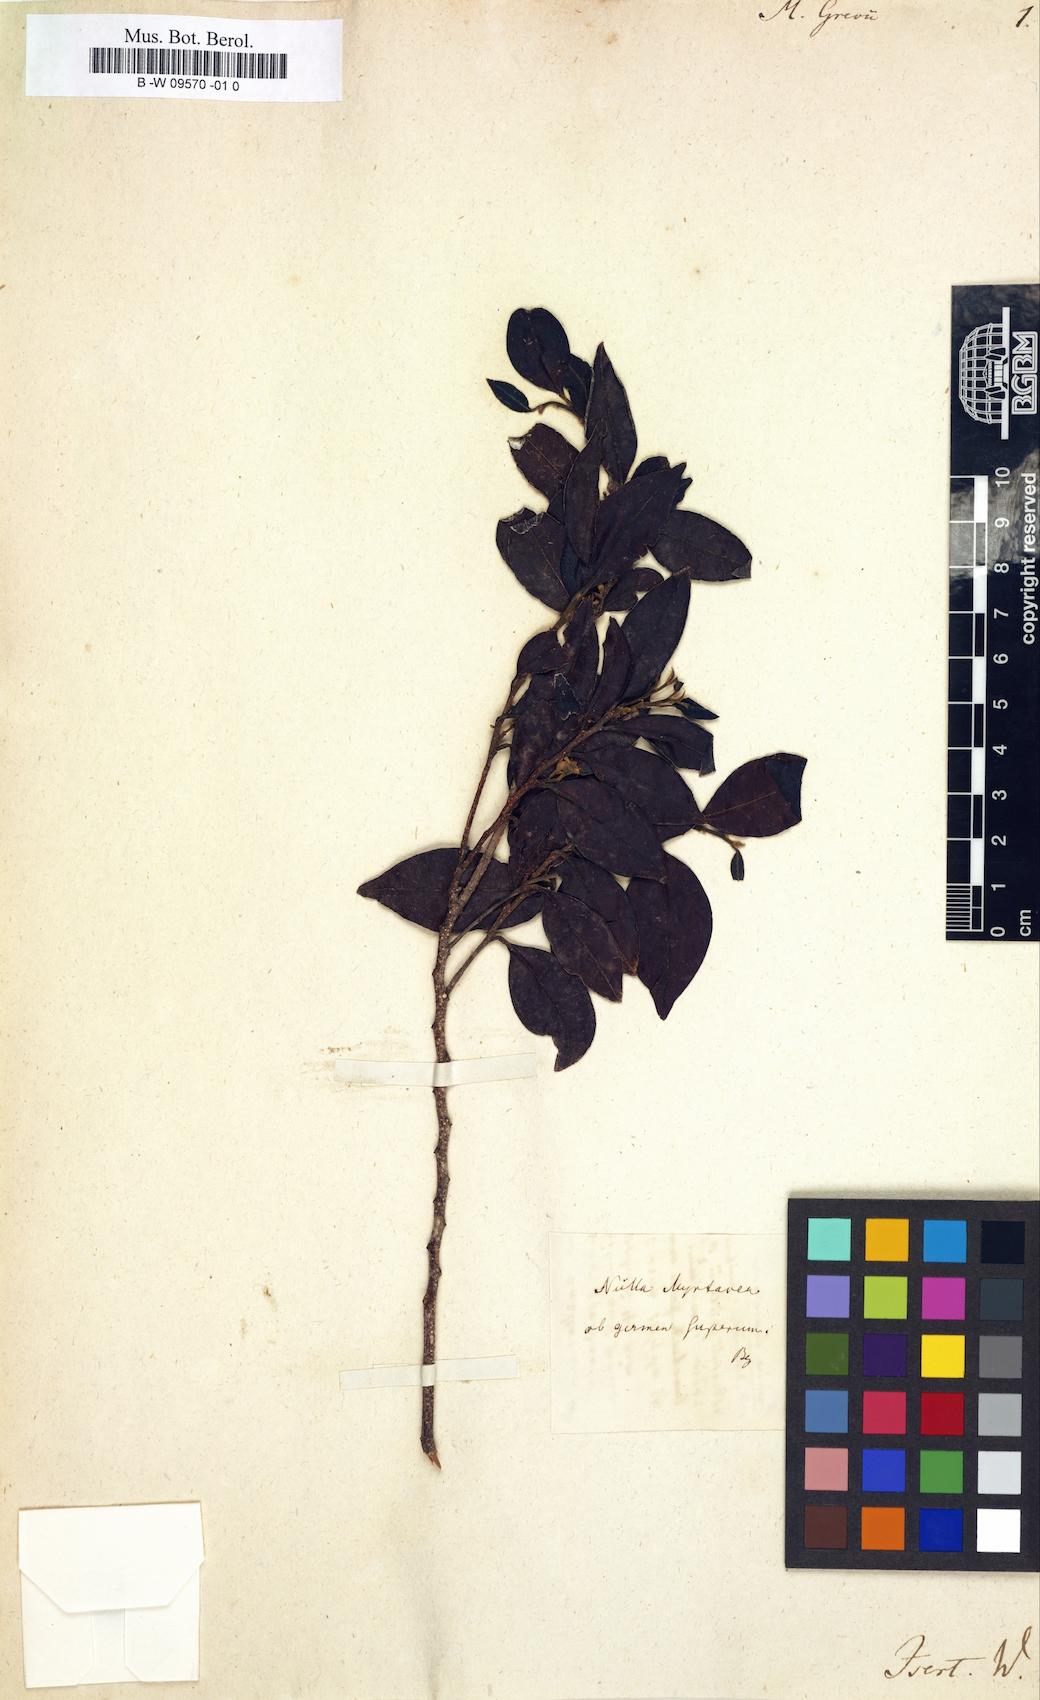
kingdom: Plantae
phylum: Tracheophyta
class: Magnoliopsida
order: Myrtales
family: Myrtaceae
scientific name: Myrtaceae
